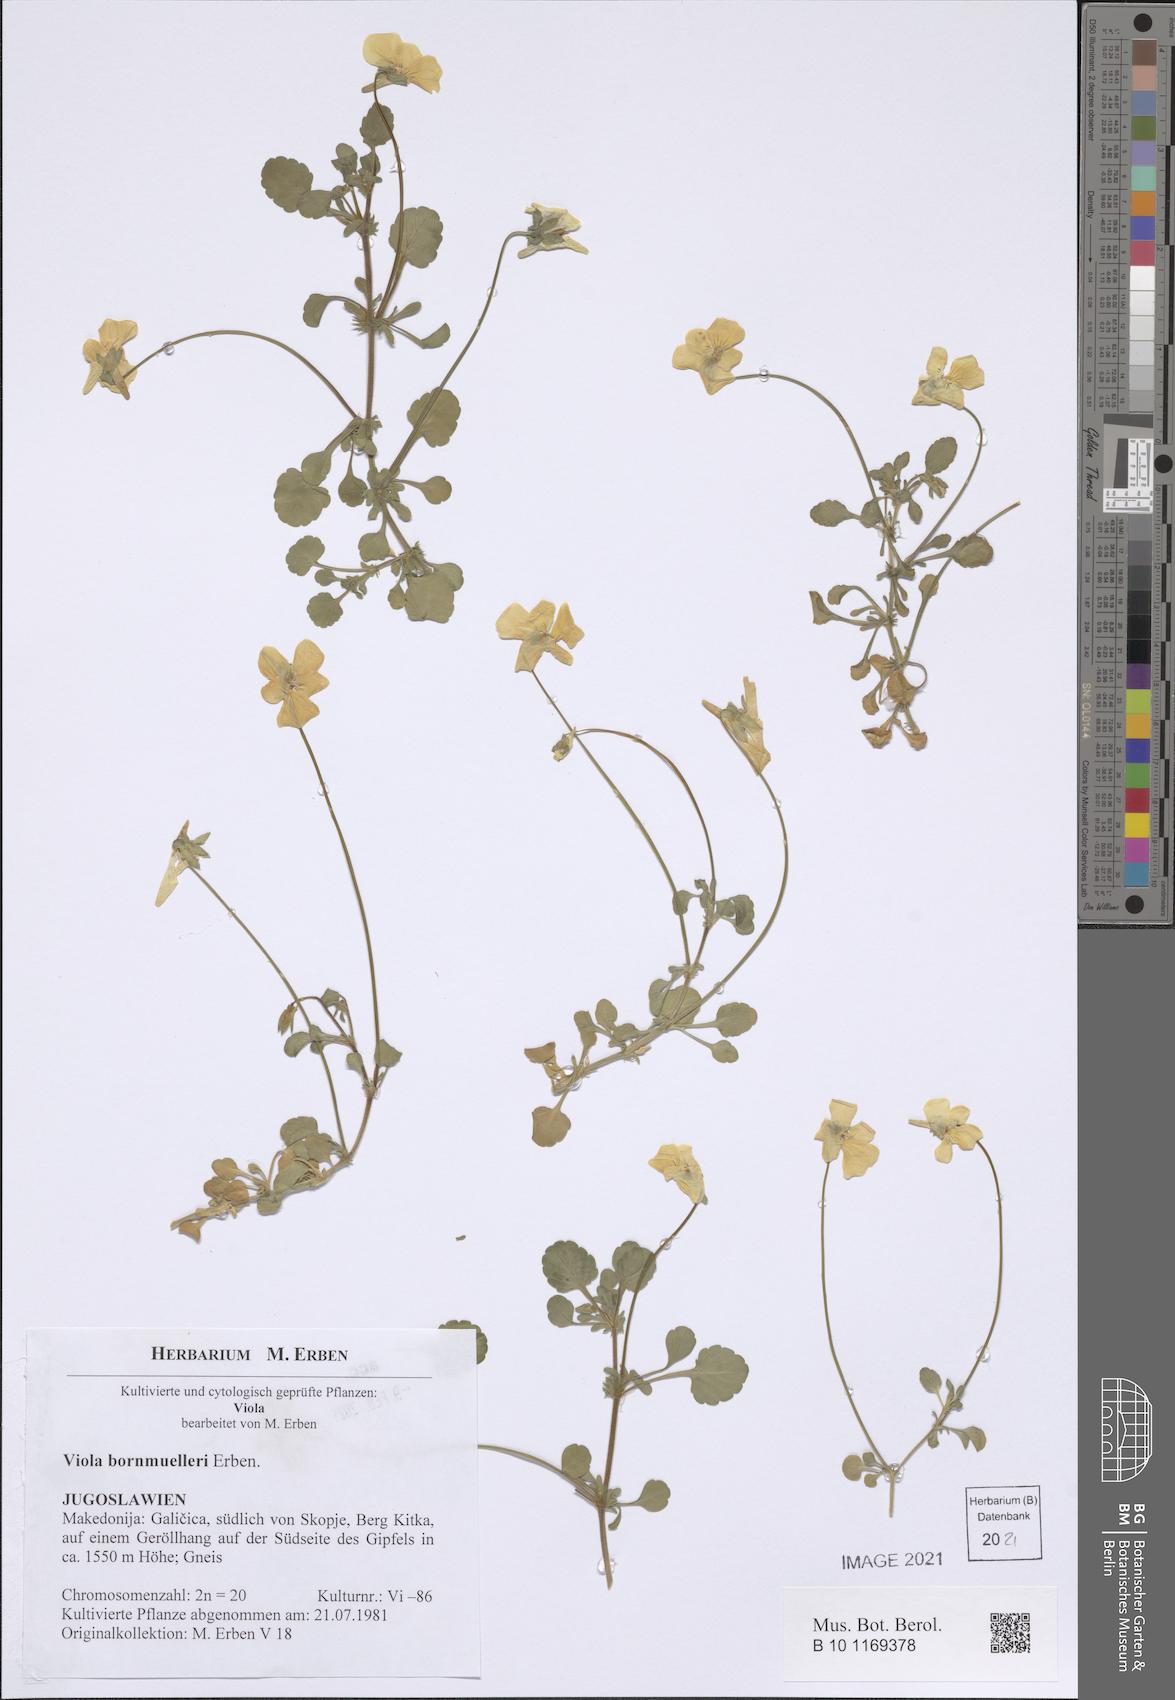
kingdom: Plantae
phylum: Tracheophyta
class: Magnoliopsida
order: Malpighiales
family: Violaceae
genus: Viola
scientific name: Viola bornmuelleri
